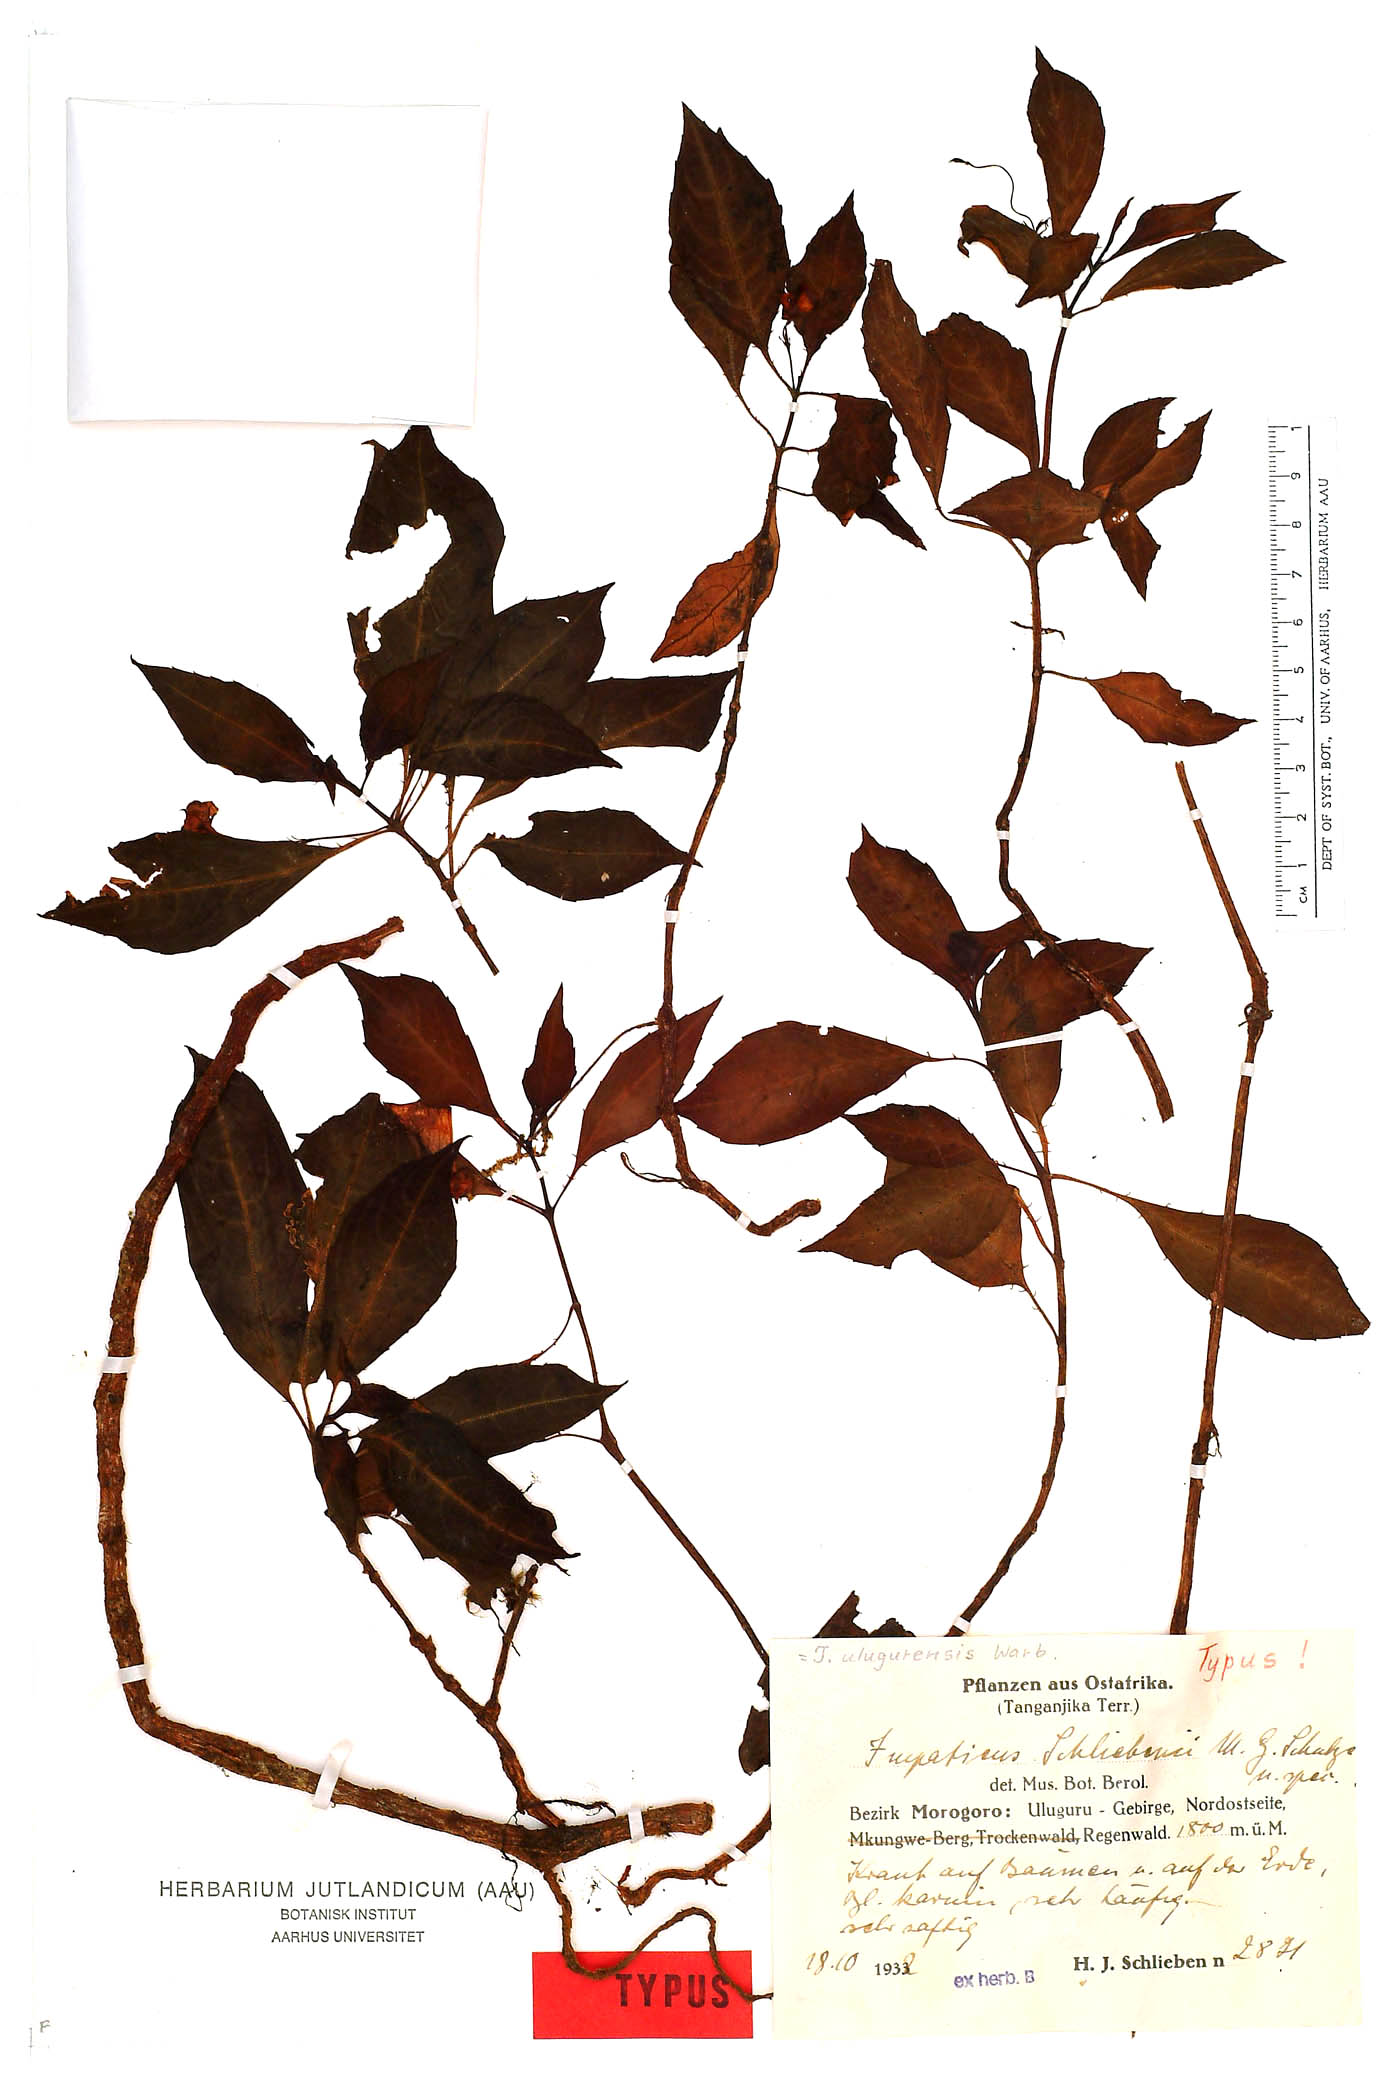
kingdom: Plantae
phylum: Tracheophyta
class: Magnoliopsida
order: Ericales
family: Balsaminaceae
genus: Impatiens
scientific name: Impatiens ulugurensis
